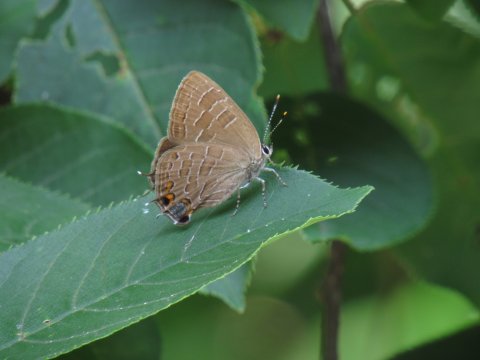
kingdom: Animalia
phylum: Arthropoda
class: Insecta
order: Lepidoptera
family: Lycaenidae
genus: Satyrium
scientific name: Satyrium liparops
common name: Striped Hairstreak
